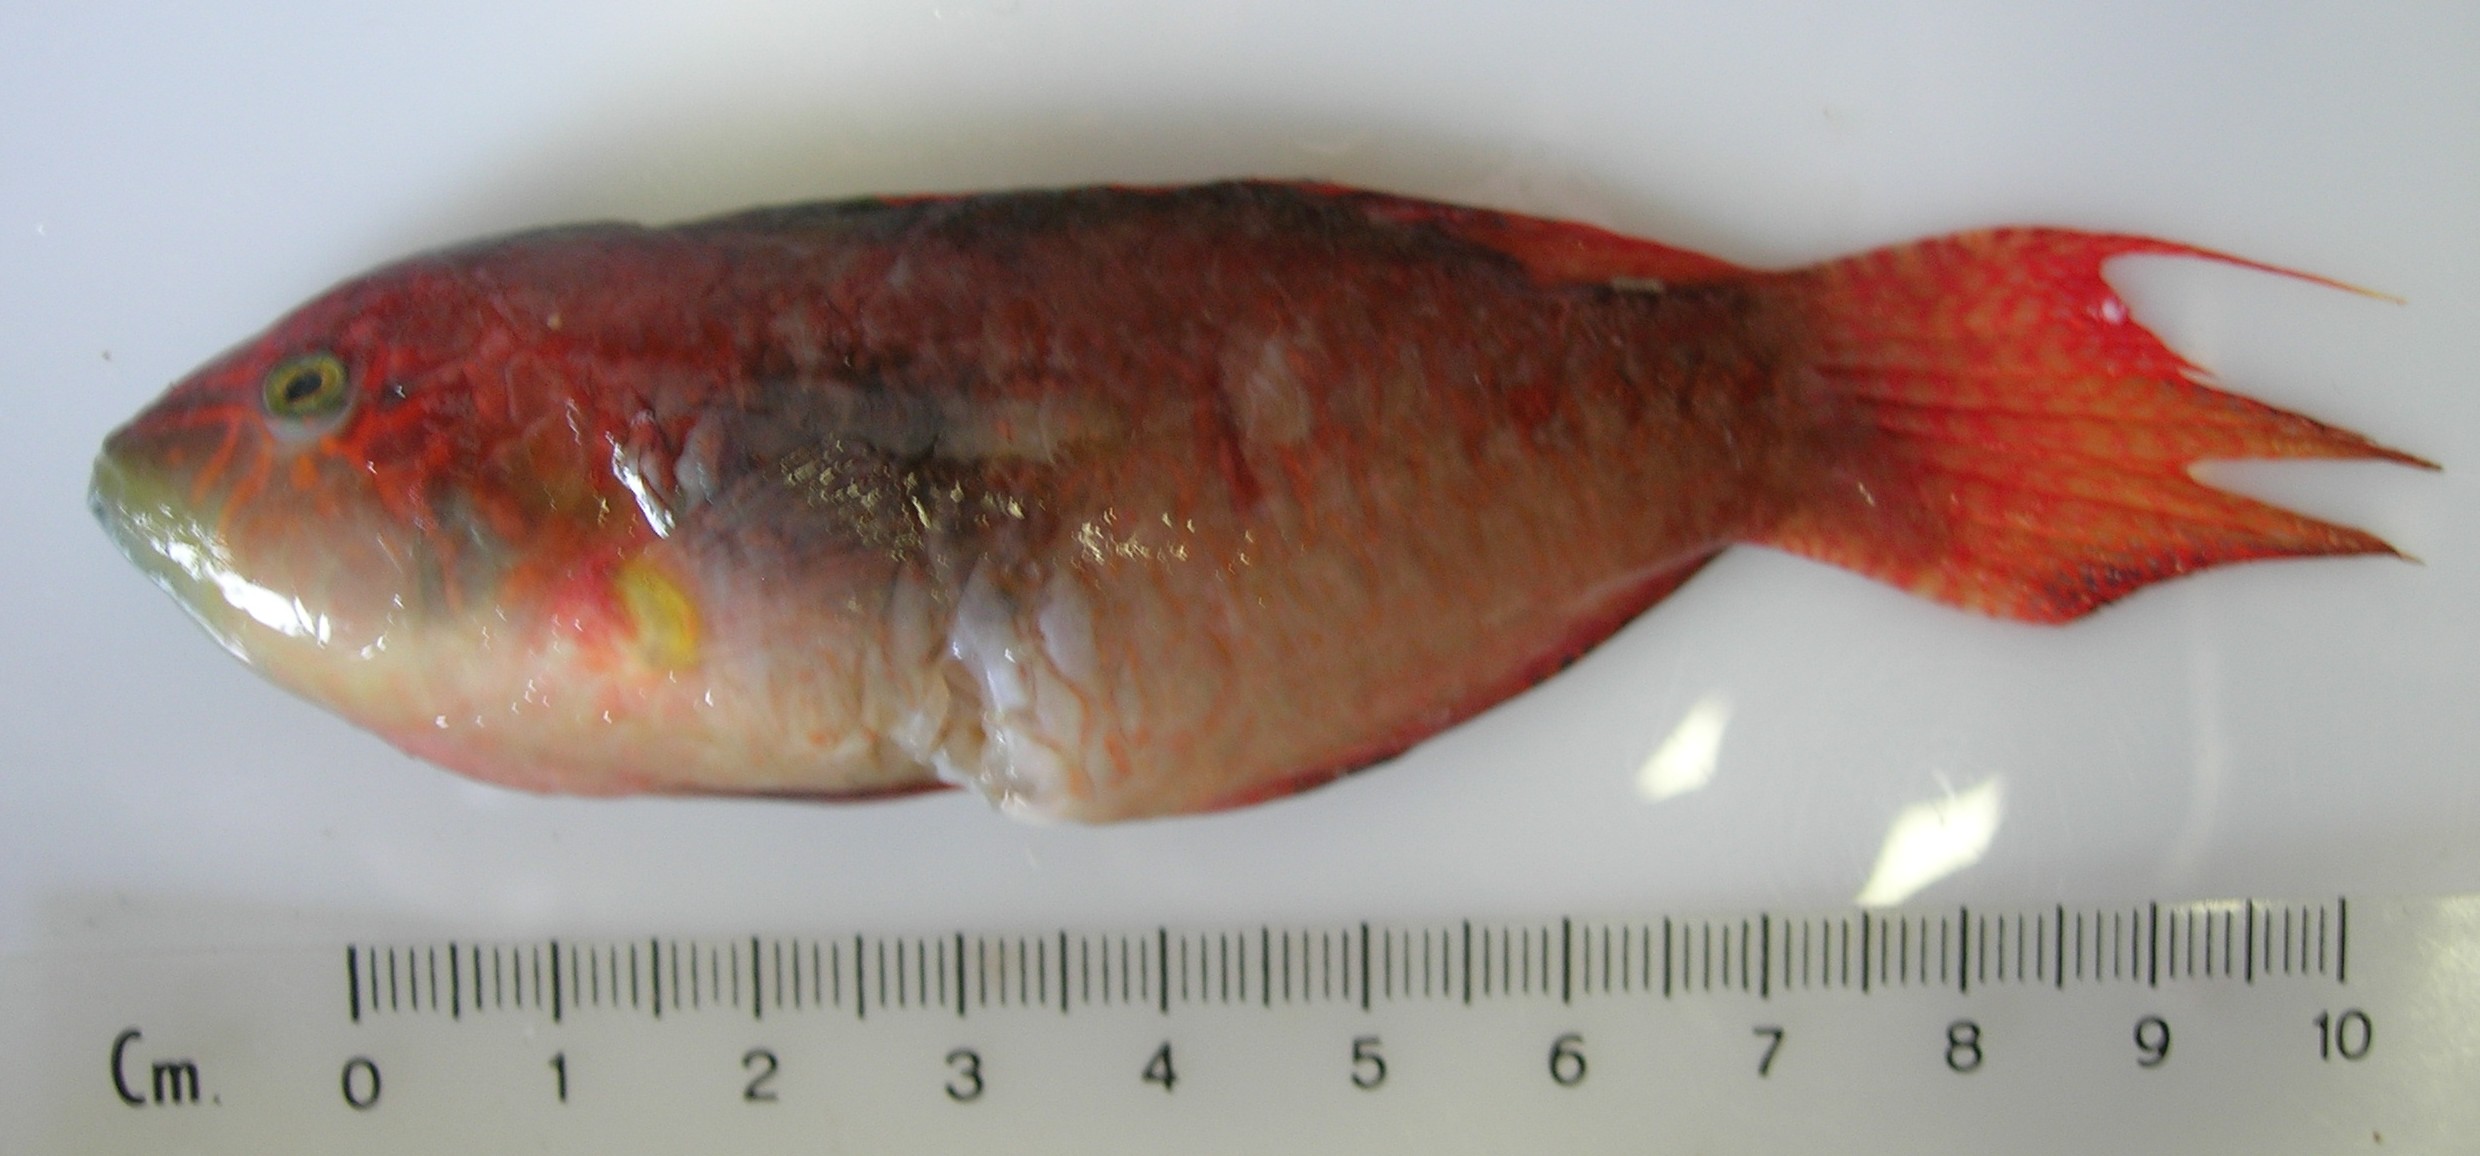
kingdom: Animalia
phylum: Chordata
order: Perciformes
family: Labridae
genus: Oxycheilinus
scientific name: Oxycheilinus bimaculatus
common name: Comettailed wrasse
